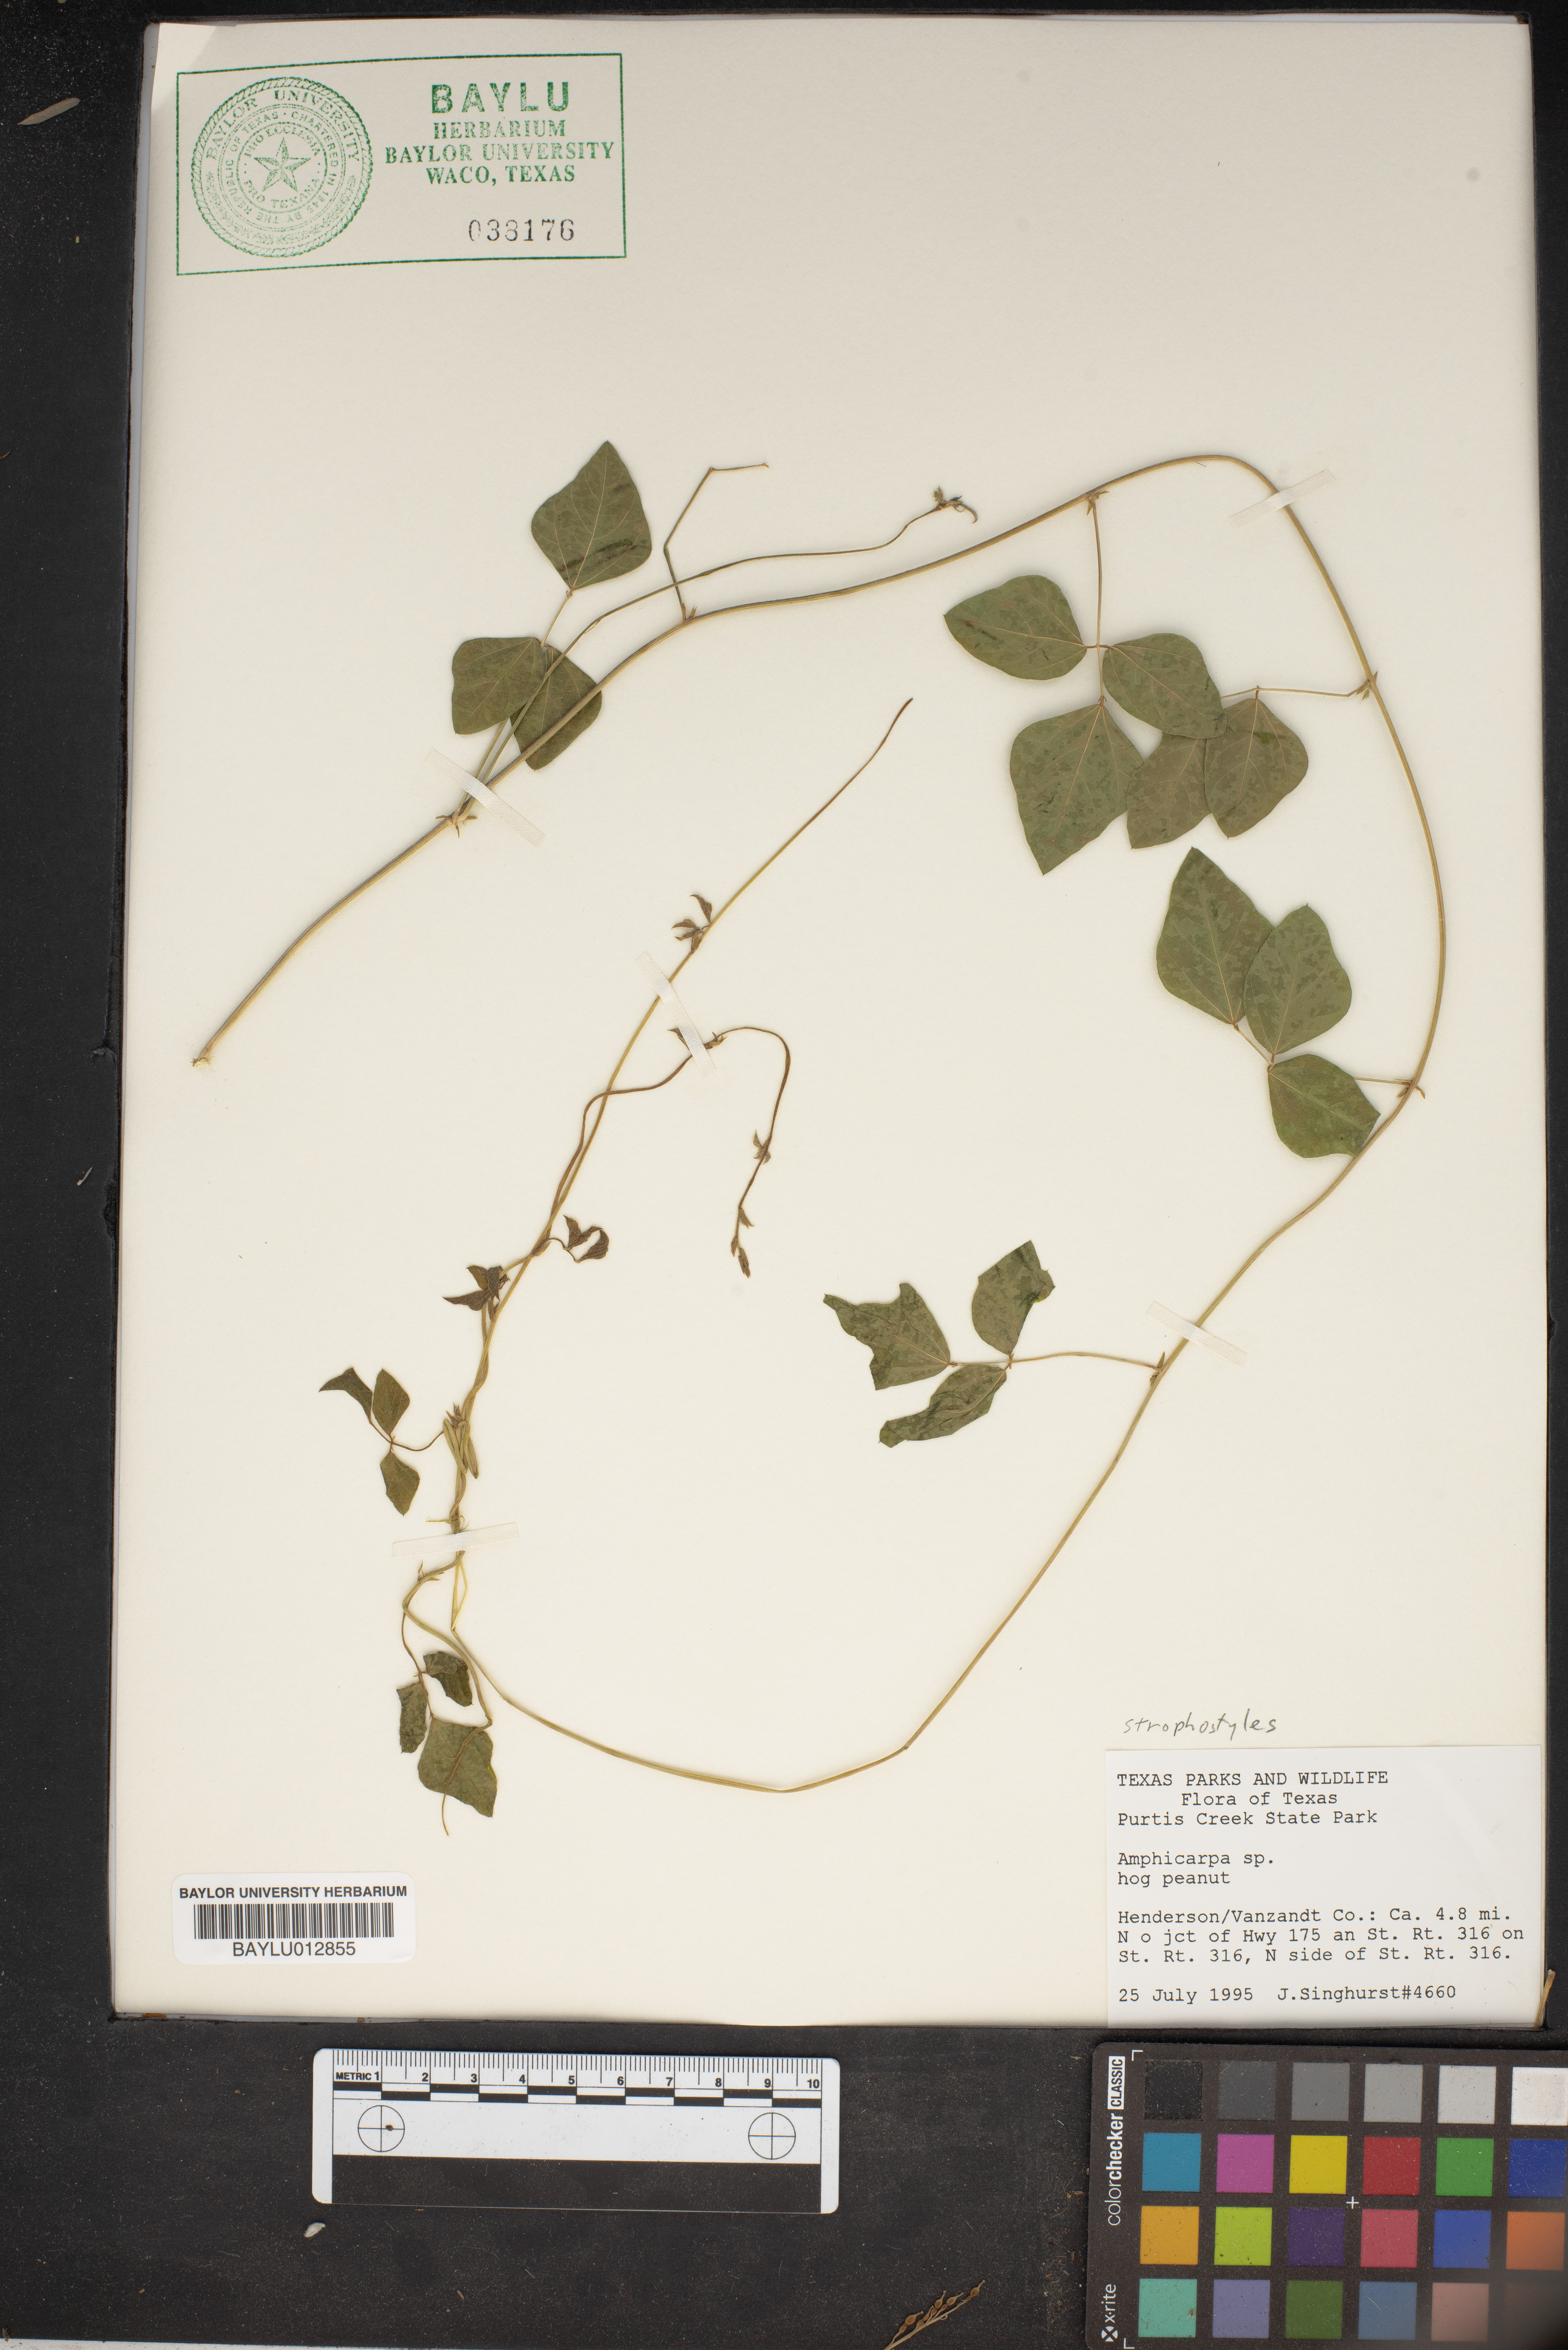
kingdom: Animalia
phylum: Chordata
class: Ascidiacea
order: Stolidobranchia
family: Styelidae
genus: Amphicarpa
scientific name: Amphicarpa
